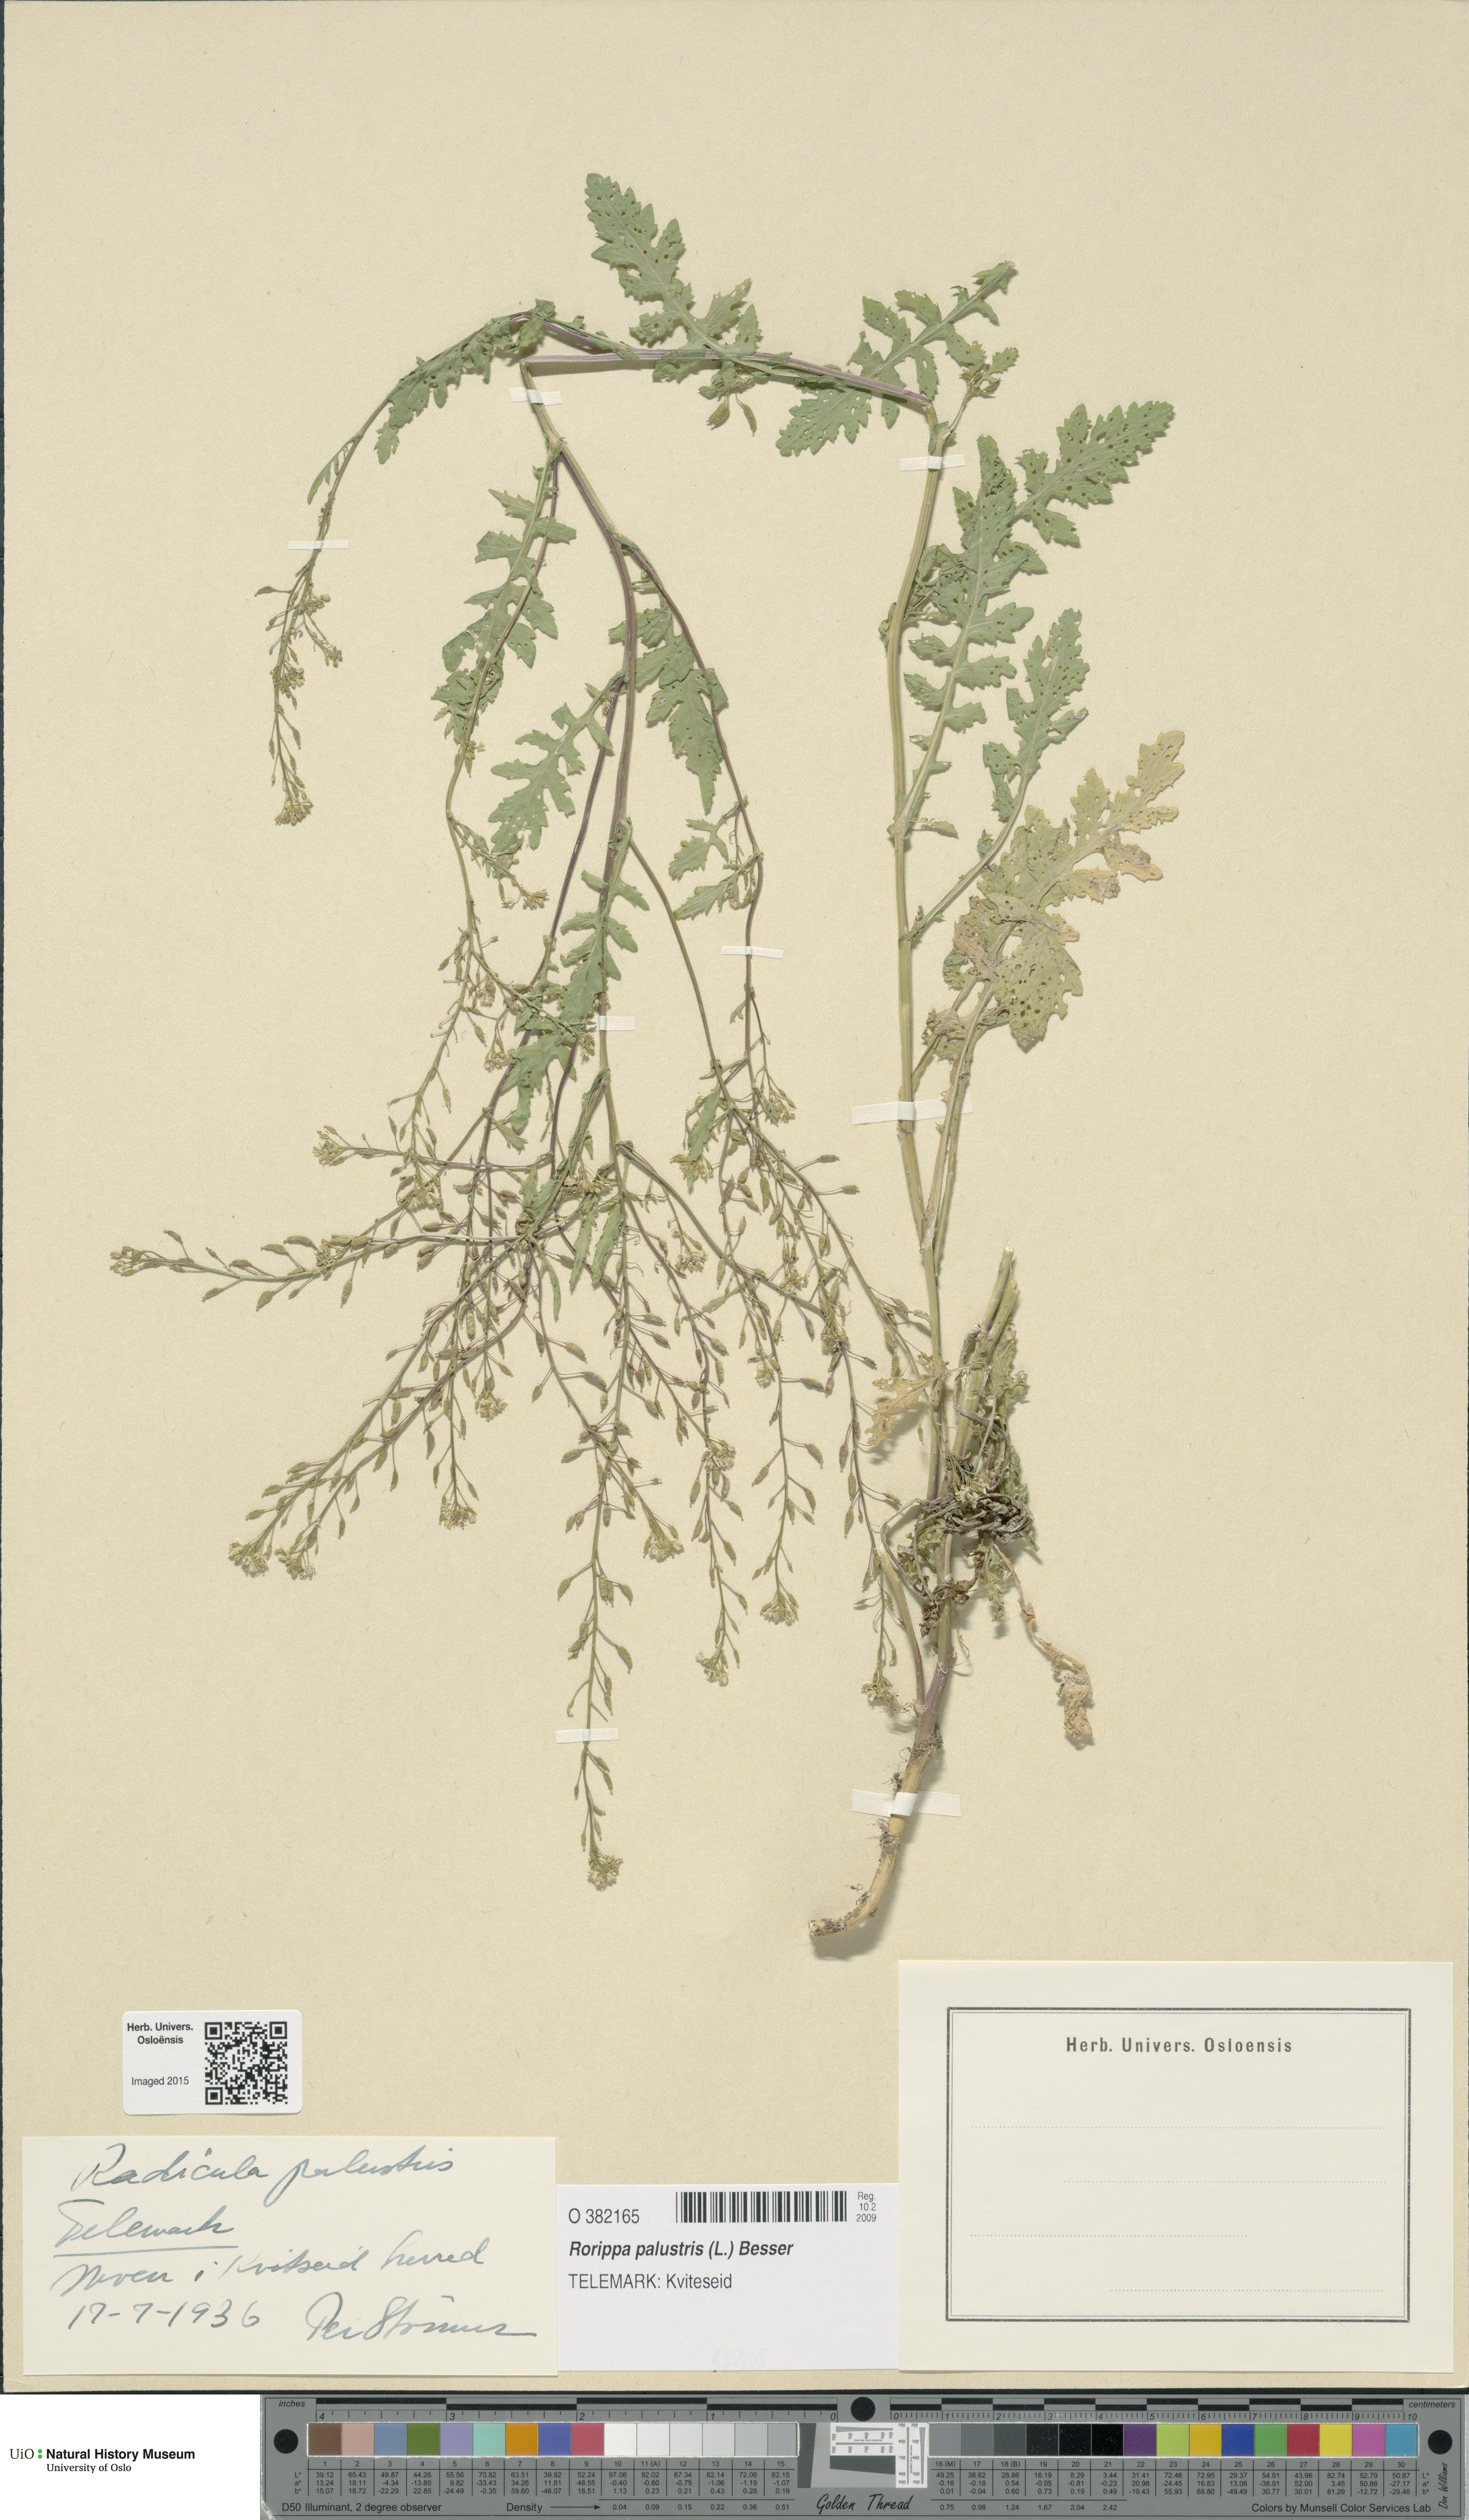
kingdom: Plantae
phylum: Tracheophyta
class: Magnoliopsida
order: Brassicales
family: Brassicaceae
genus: Rorippa
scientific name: Rorippa palustris
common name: Marsh yellow-cress
